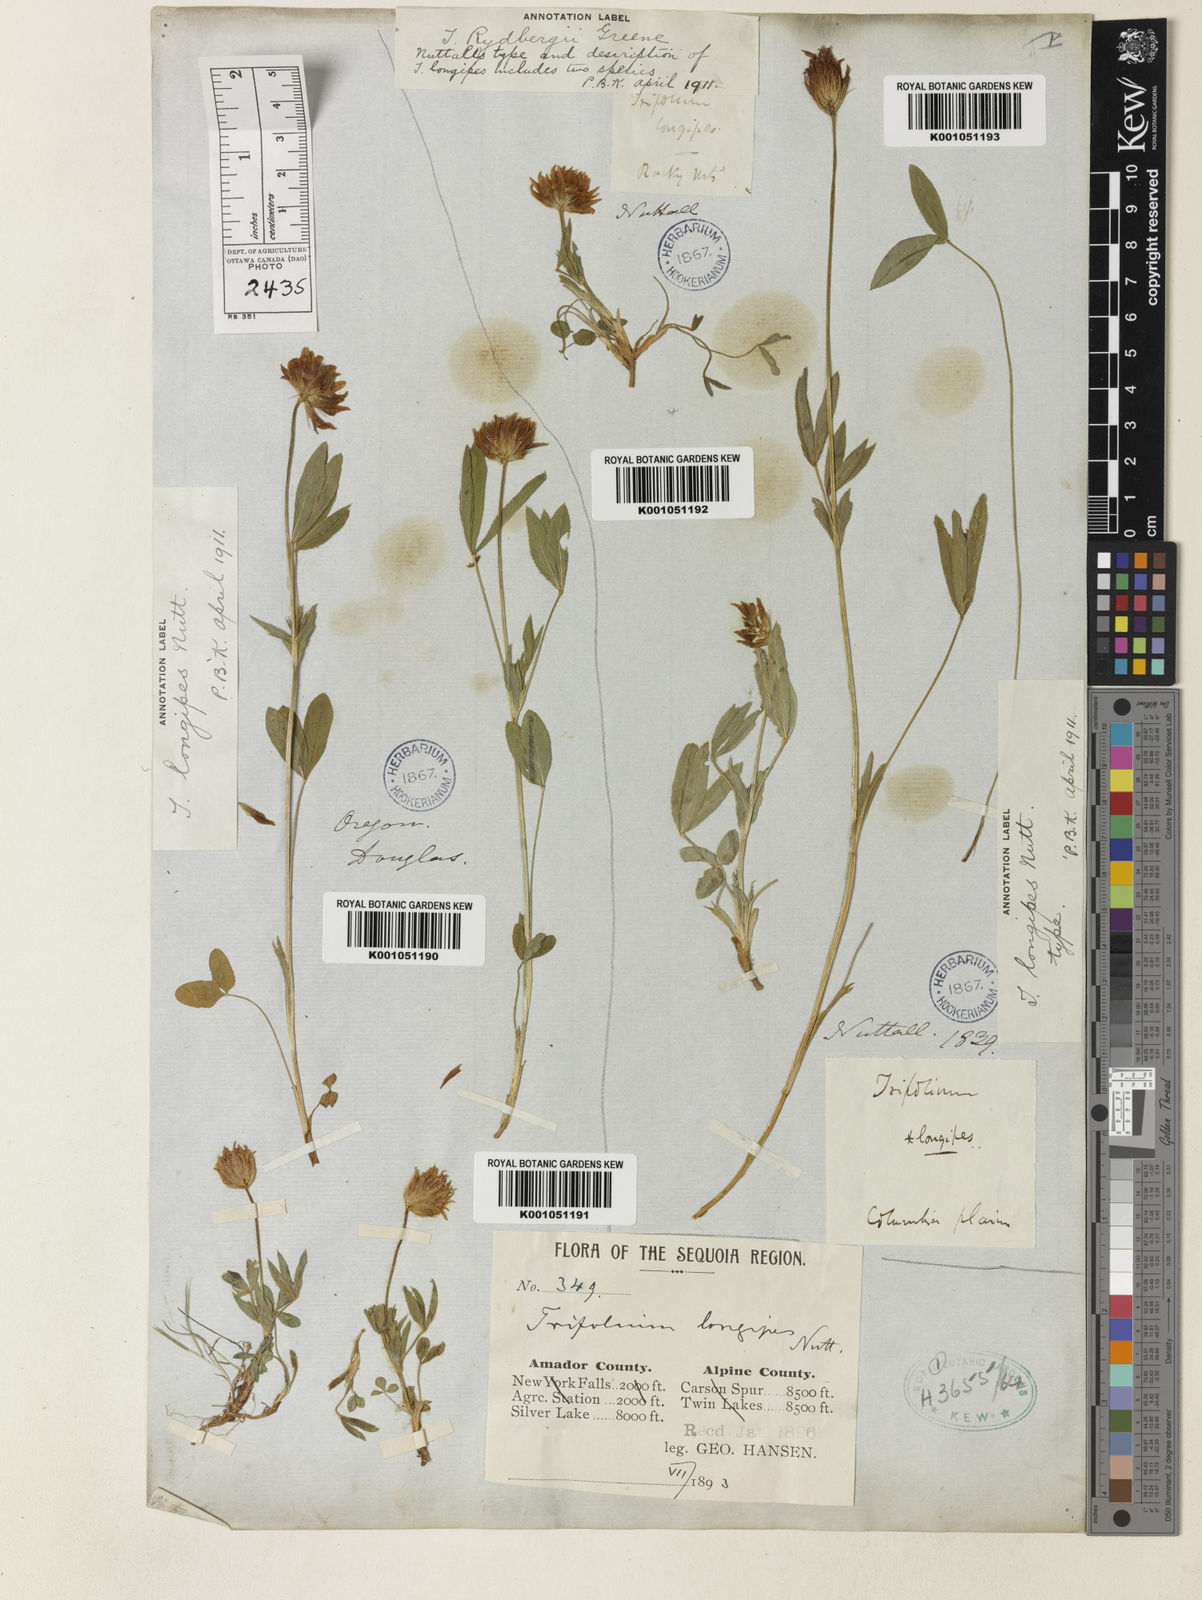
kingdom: Plantae
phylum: Tracheophyta
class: Magnoliopsida
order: Fabales
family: Fabaceae
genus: Trifolium
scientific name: Trifolium longipes
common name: Long-stalk clover
